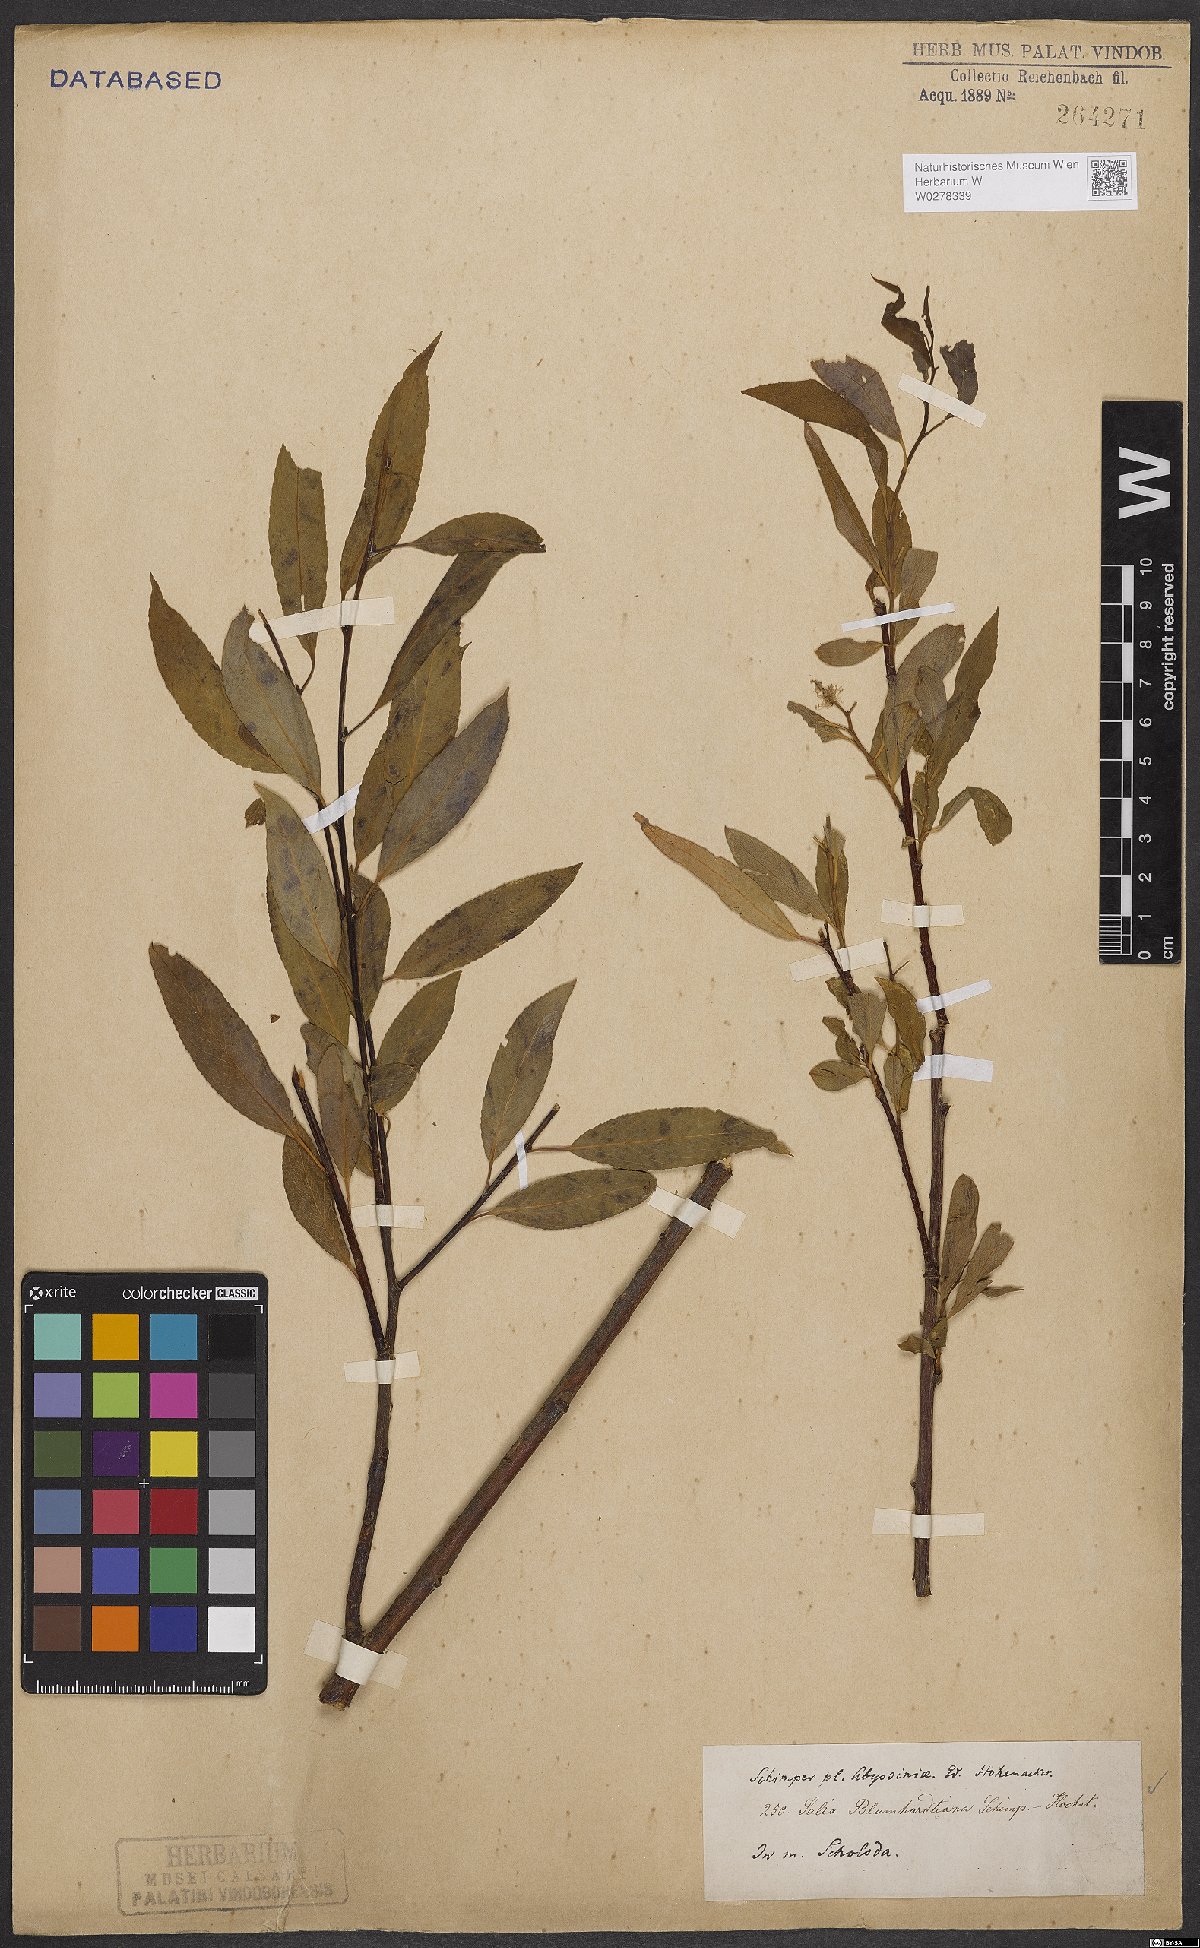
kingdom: Plantae
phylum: Tracheophyta
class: Magnoliopsida
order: Malpighiales
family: Salicaceae
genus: Salix
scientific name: Salix mucronata
